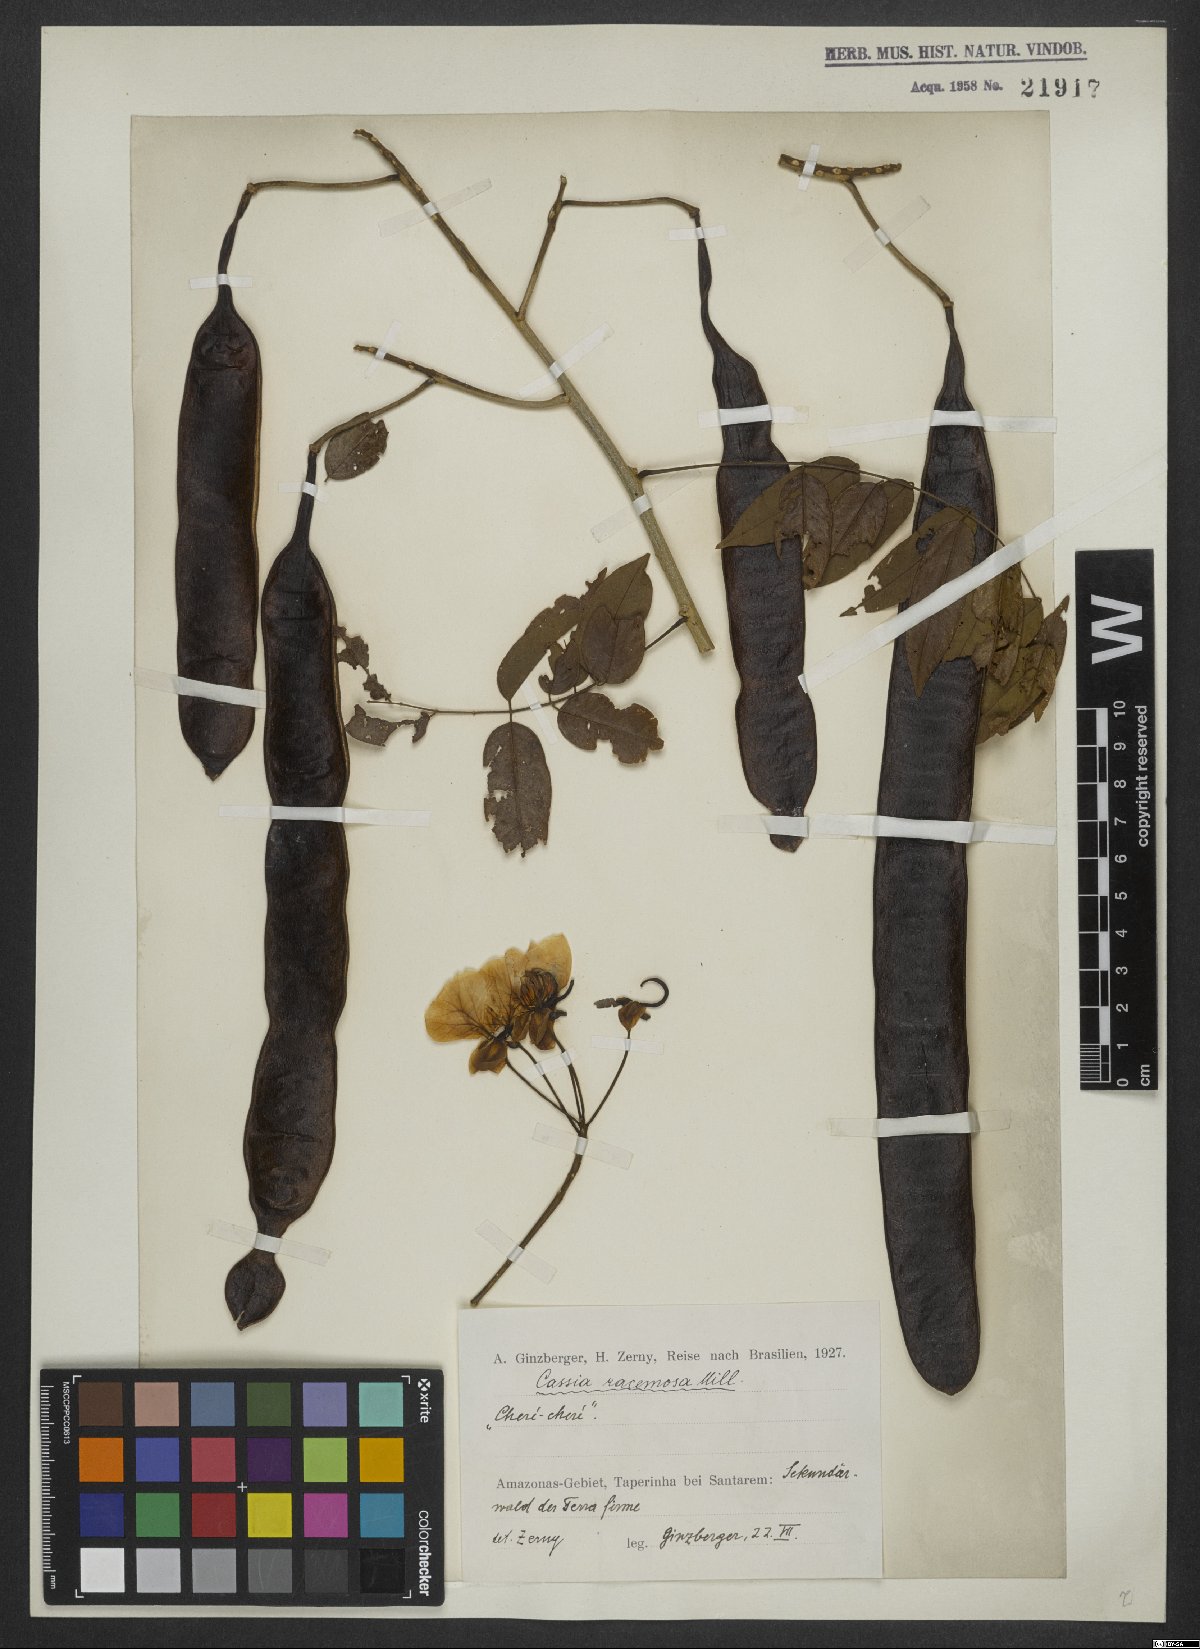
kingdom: Plantae
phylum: Tracheophyta
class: Magnoliopsida
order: Fabales
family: Fabaceae
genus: Senna
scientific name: Senna racemosa
